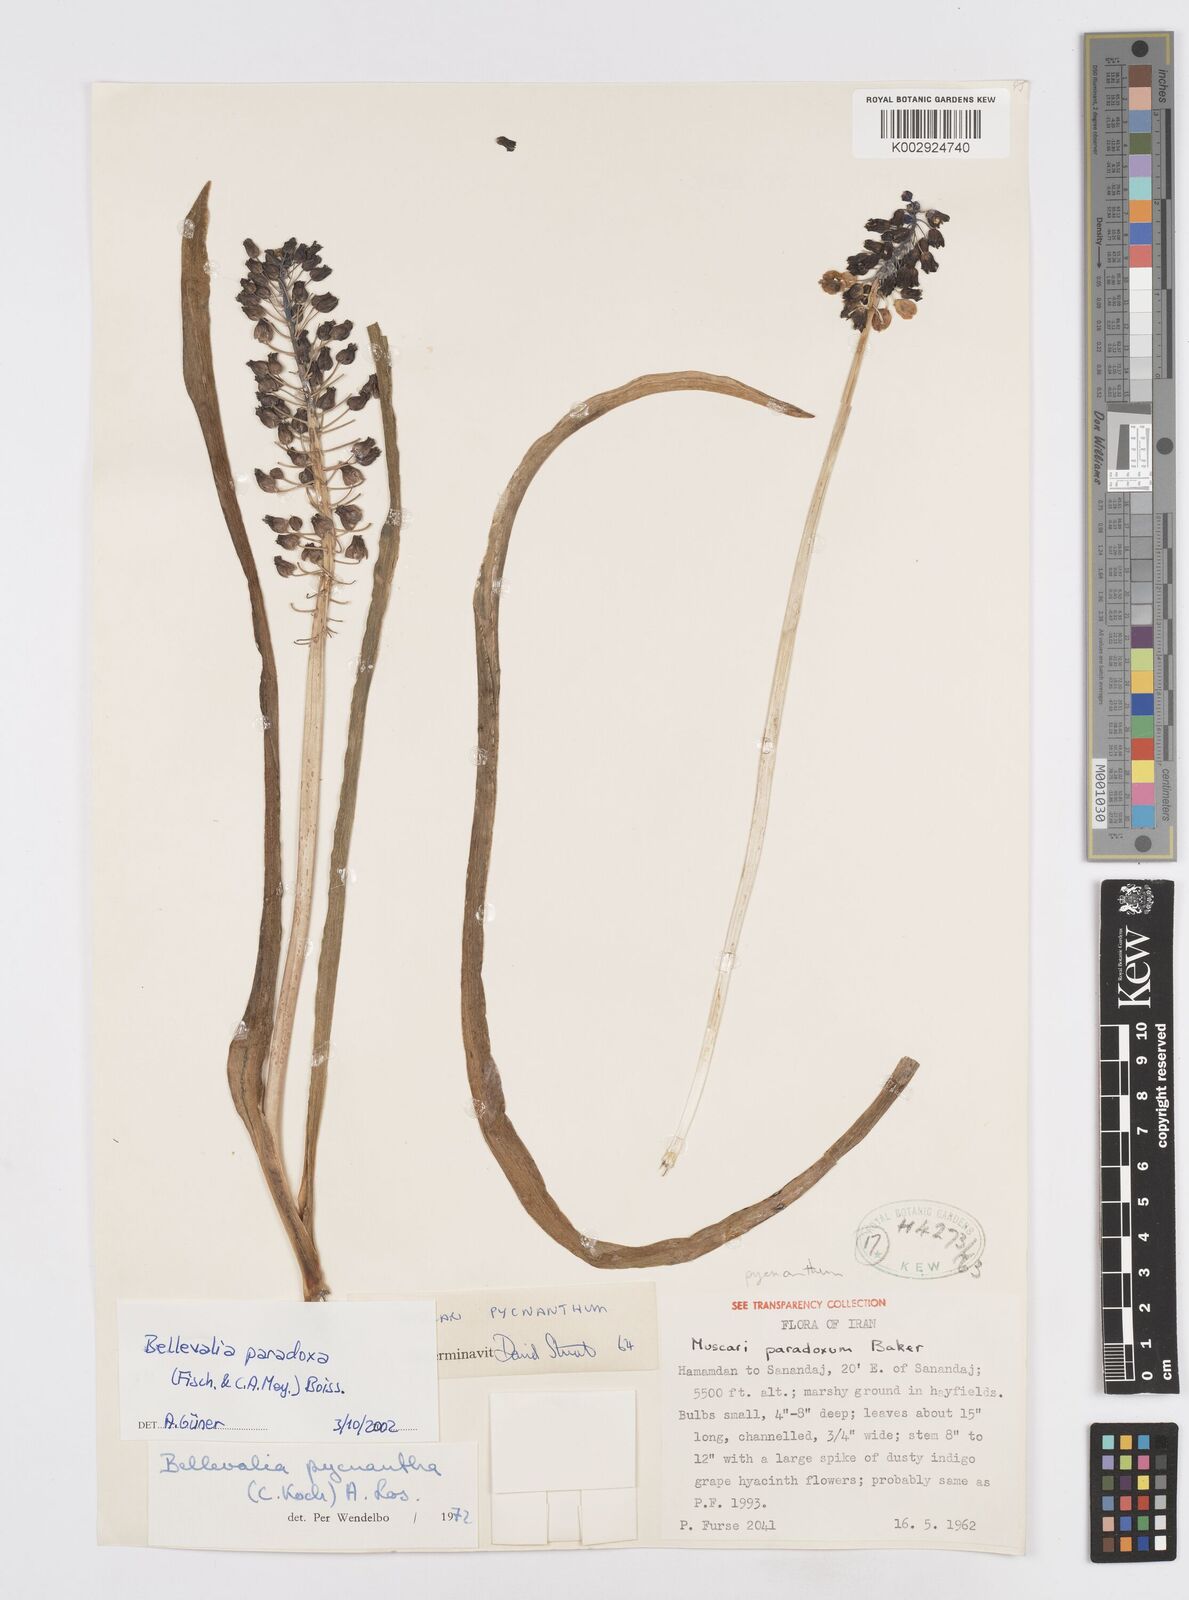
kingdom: Plantae
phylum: Tracheophyta
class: Liliopsida
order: Asparagales
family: Asparagaceae
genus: Bellevalia
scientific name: Bellevalia paradoxa
